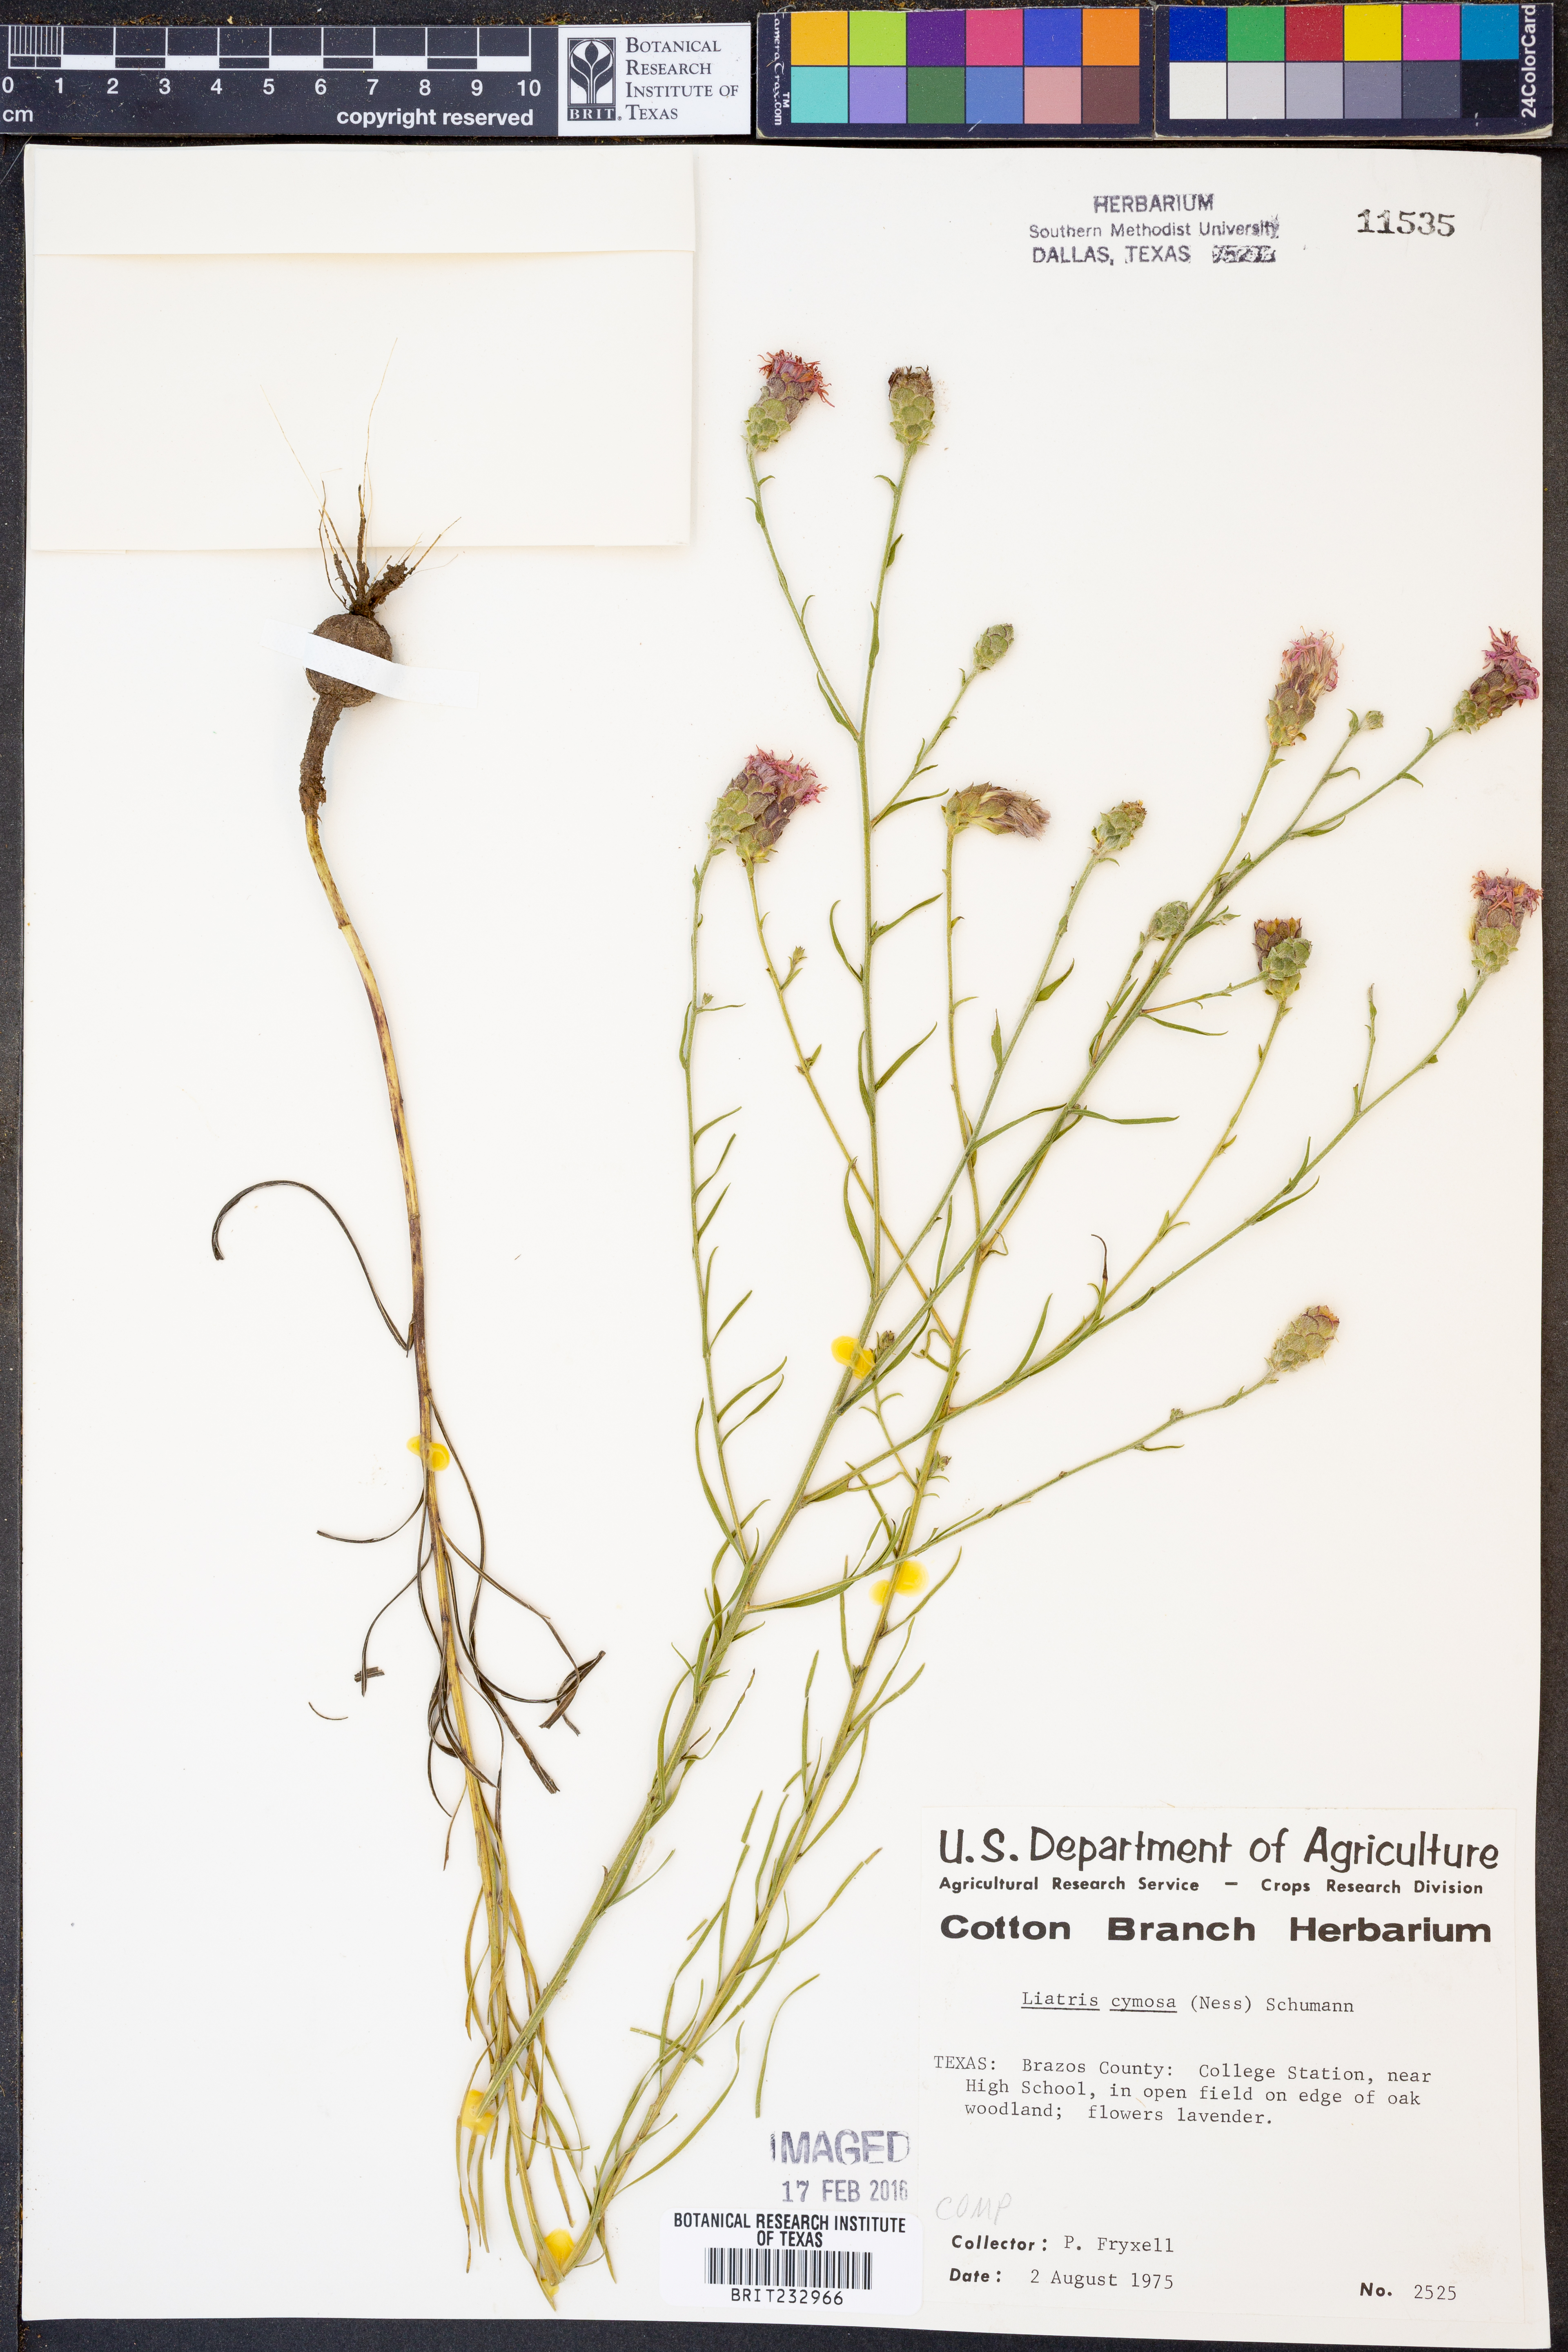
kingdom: Plantae
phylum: Tracheophyta
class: Magnoliopsida
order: Asterales
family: Asteraceae
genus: Liatris
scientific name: Liatris cymosa
